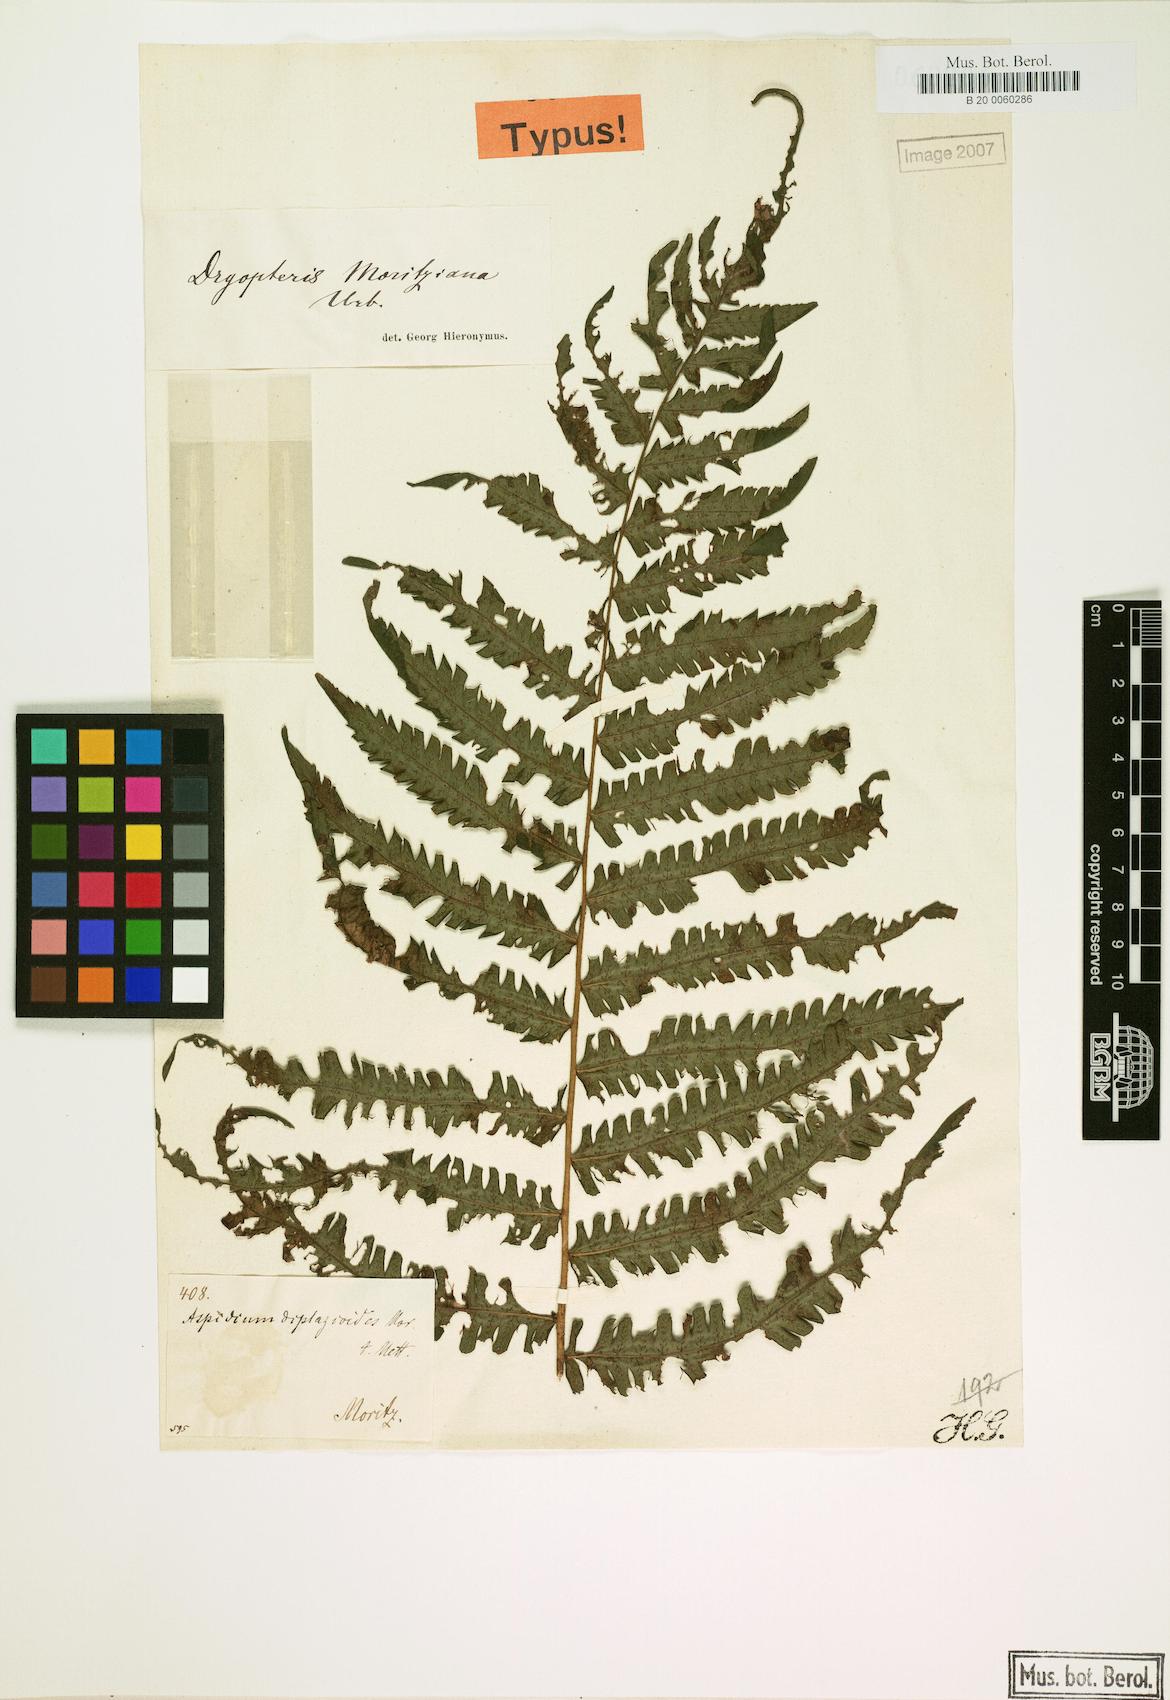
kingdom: Plantae
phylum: Tracheophyta
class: Polypodiopsida
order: Polypodiales
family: Thelypteridaceae
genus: Amauropelta
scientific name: Amauropelta moritziana
